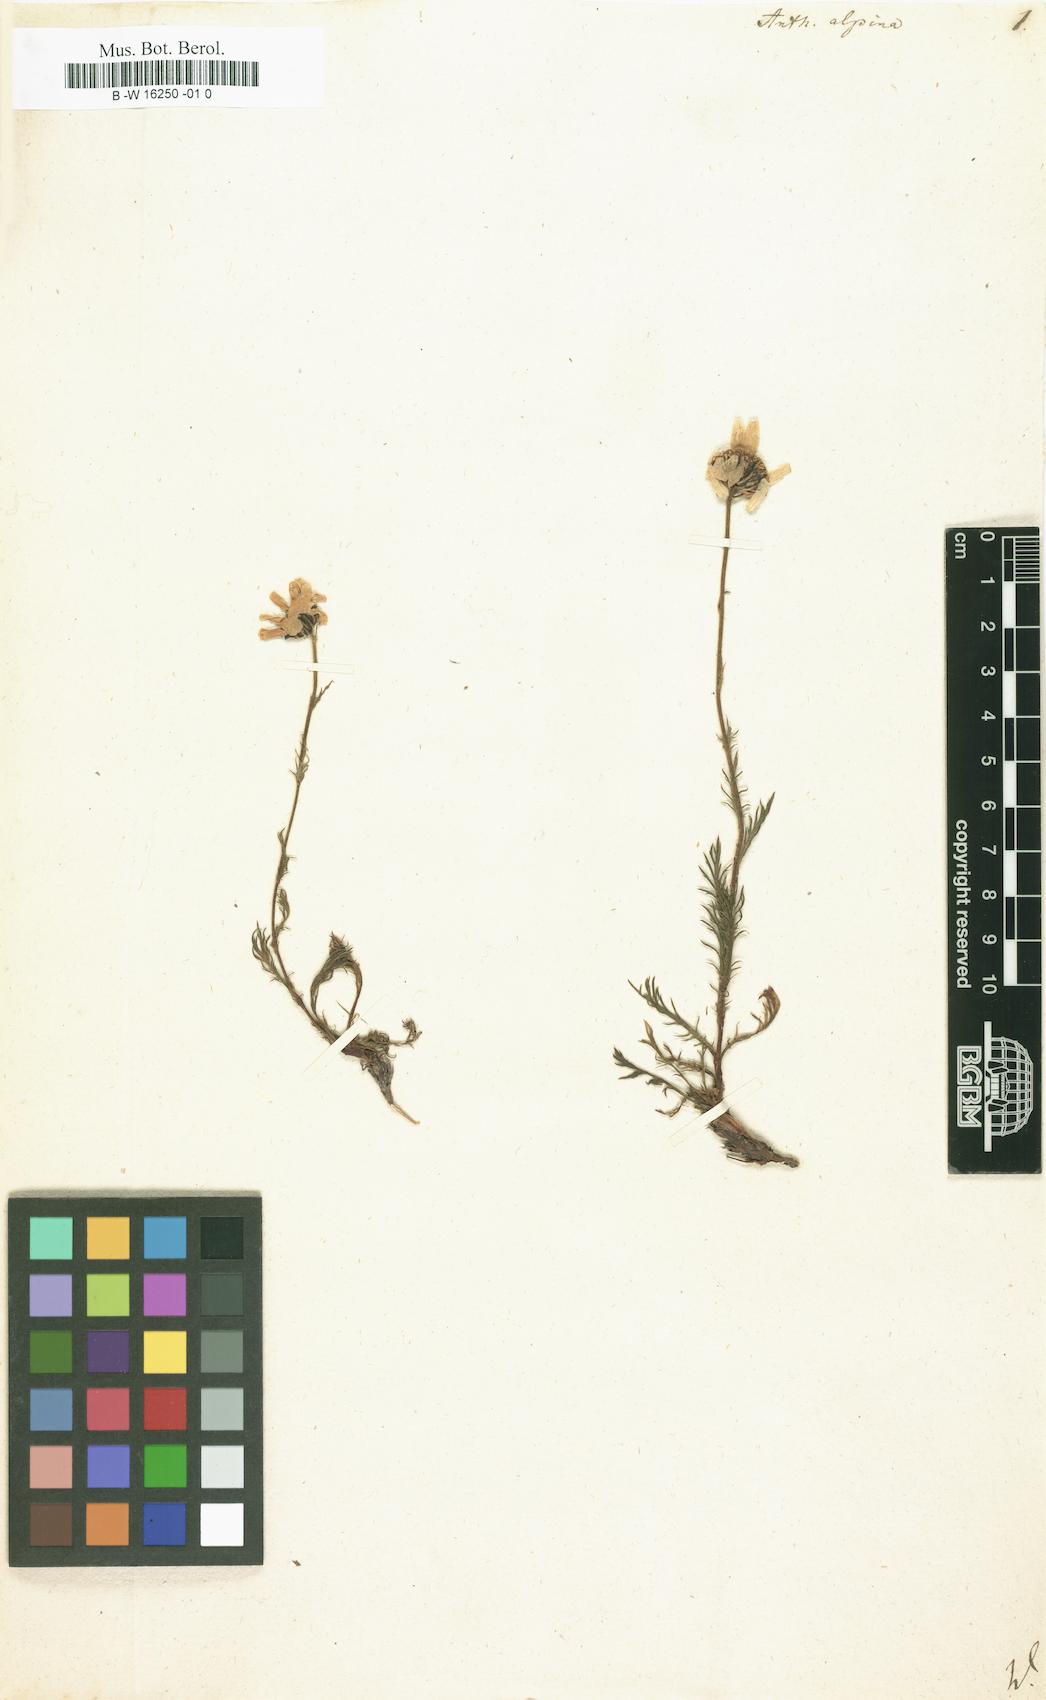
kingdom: Plantae
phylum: Tracheophyta
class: Magnoliopsida
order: Asterales
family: Asteraceae
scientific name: Asteraceae
